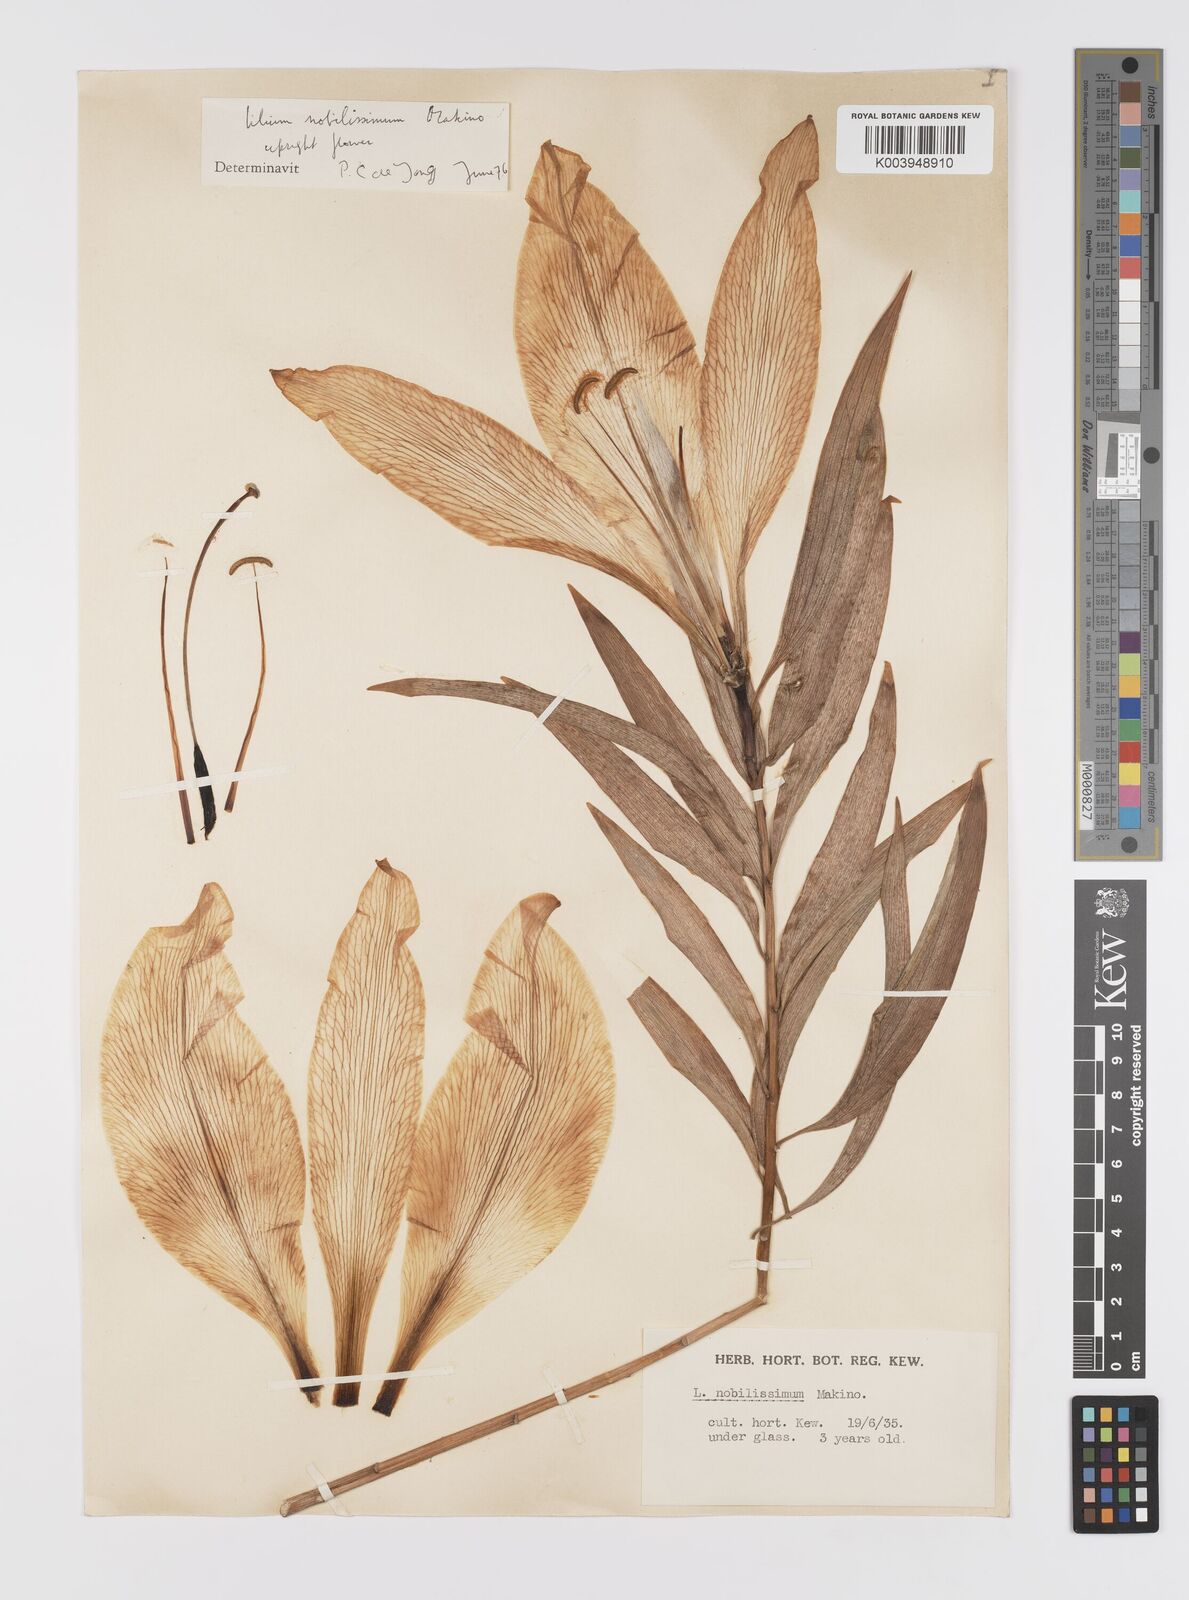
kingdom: Plantae
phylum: Tracheophyta
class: Liliopsida
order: Liliales
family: Liliaceae
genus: Lilium
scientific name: Lilium nobilissimum
